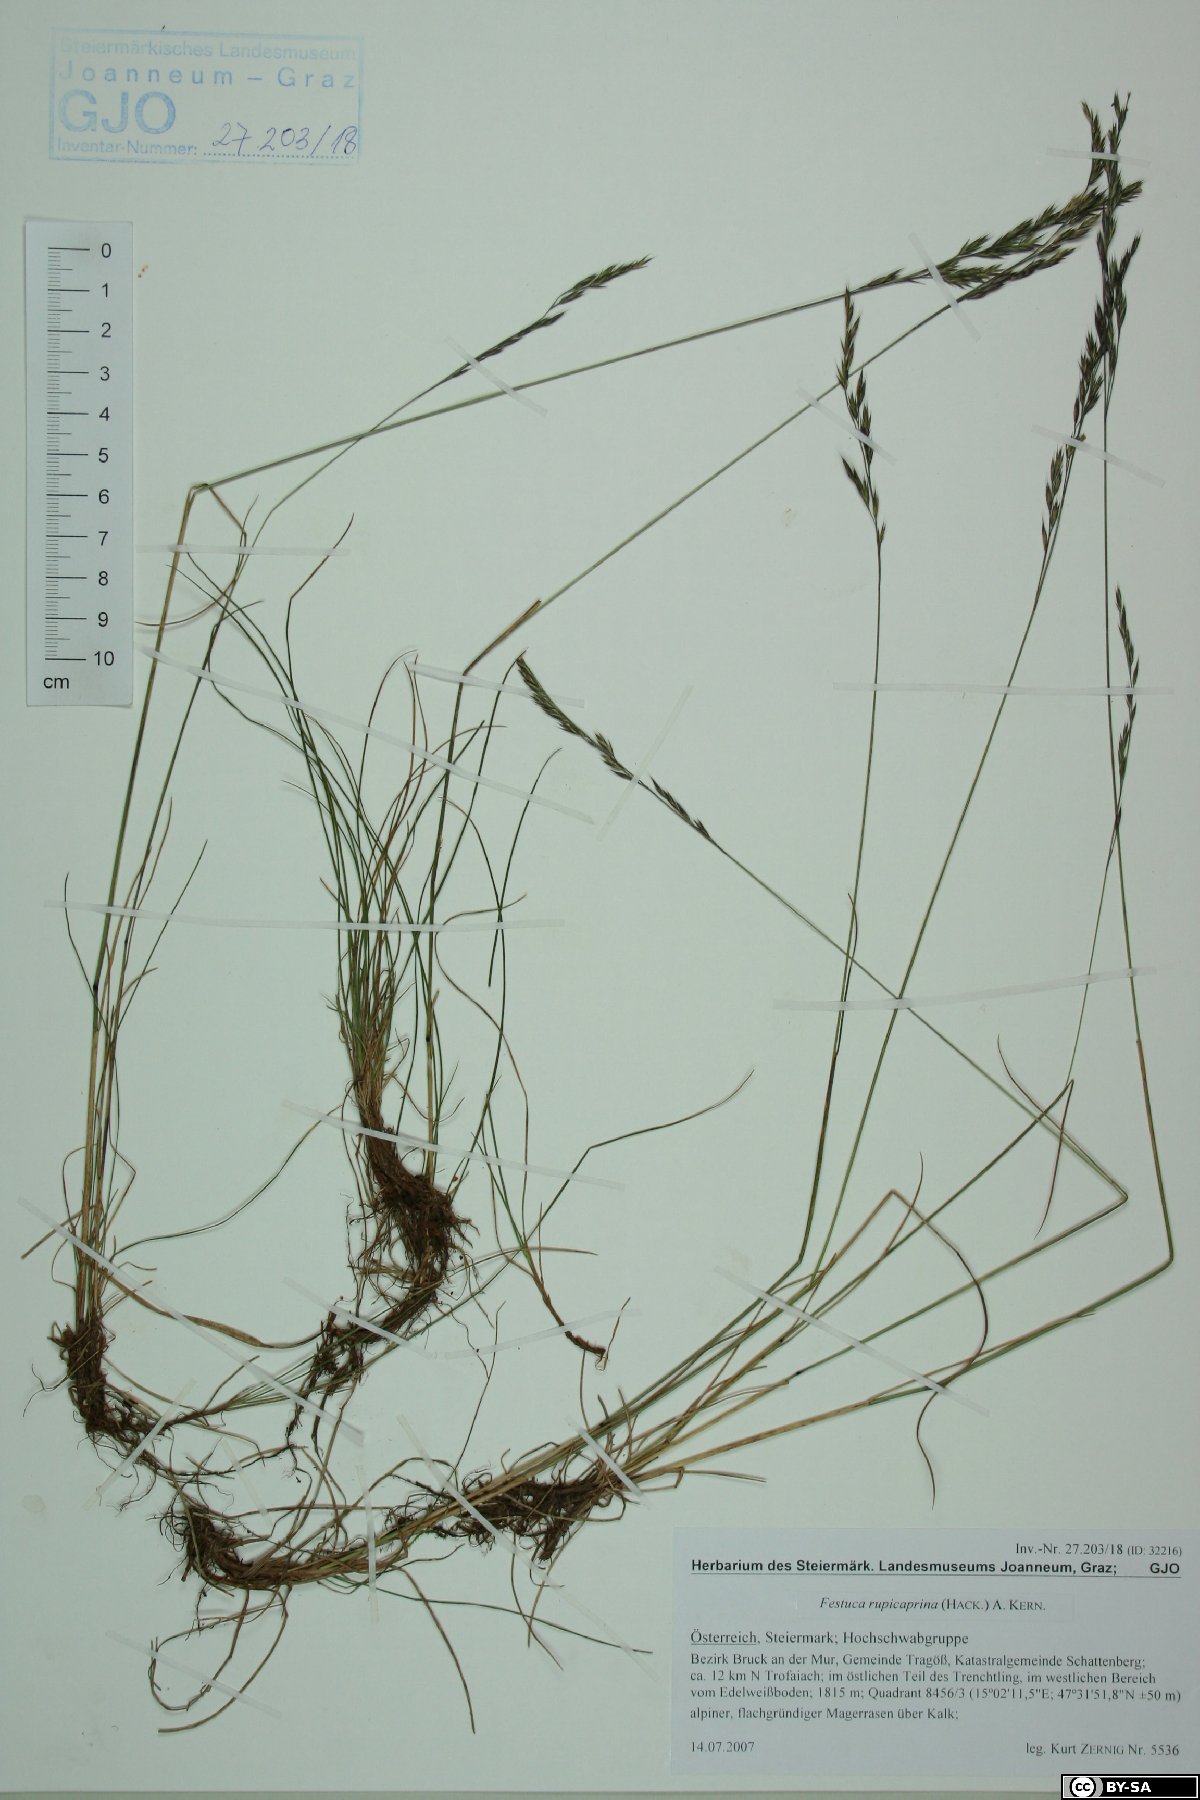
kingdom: Plantae
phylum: Tracheophyta
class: Liliopsida
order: Poales
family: Poaceae
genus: Festuca
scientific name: Festuca picturata
